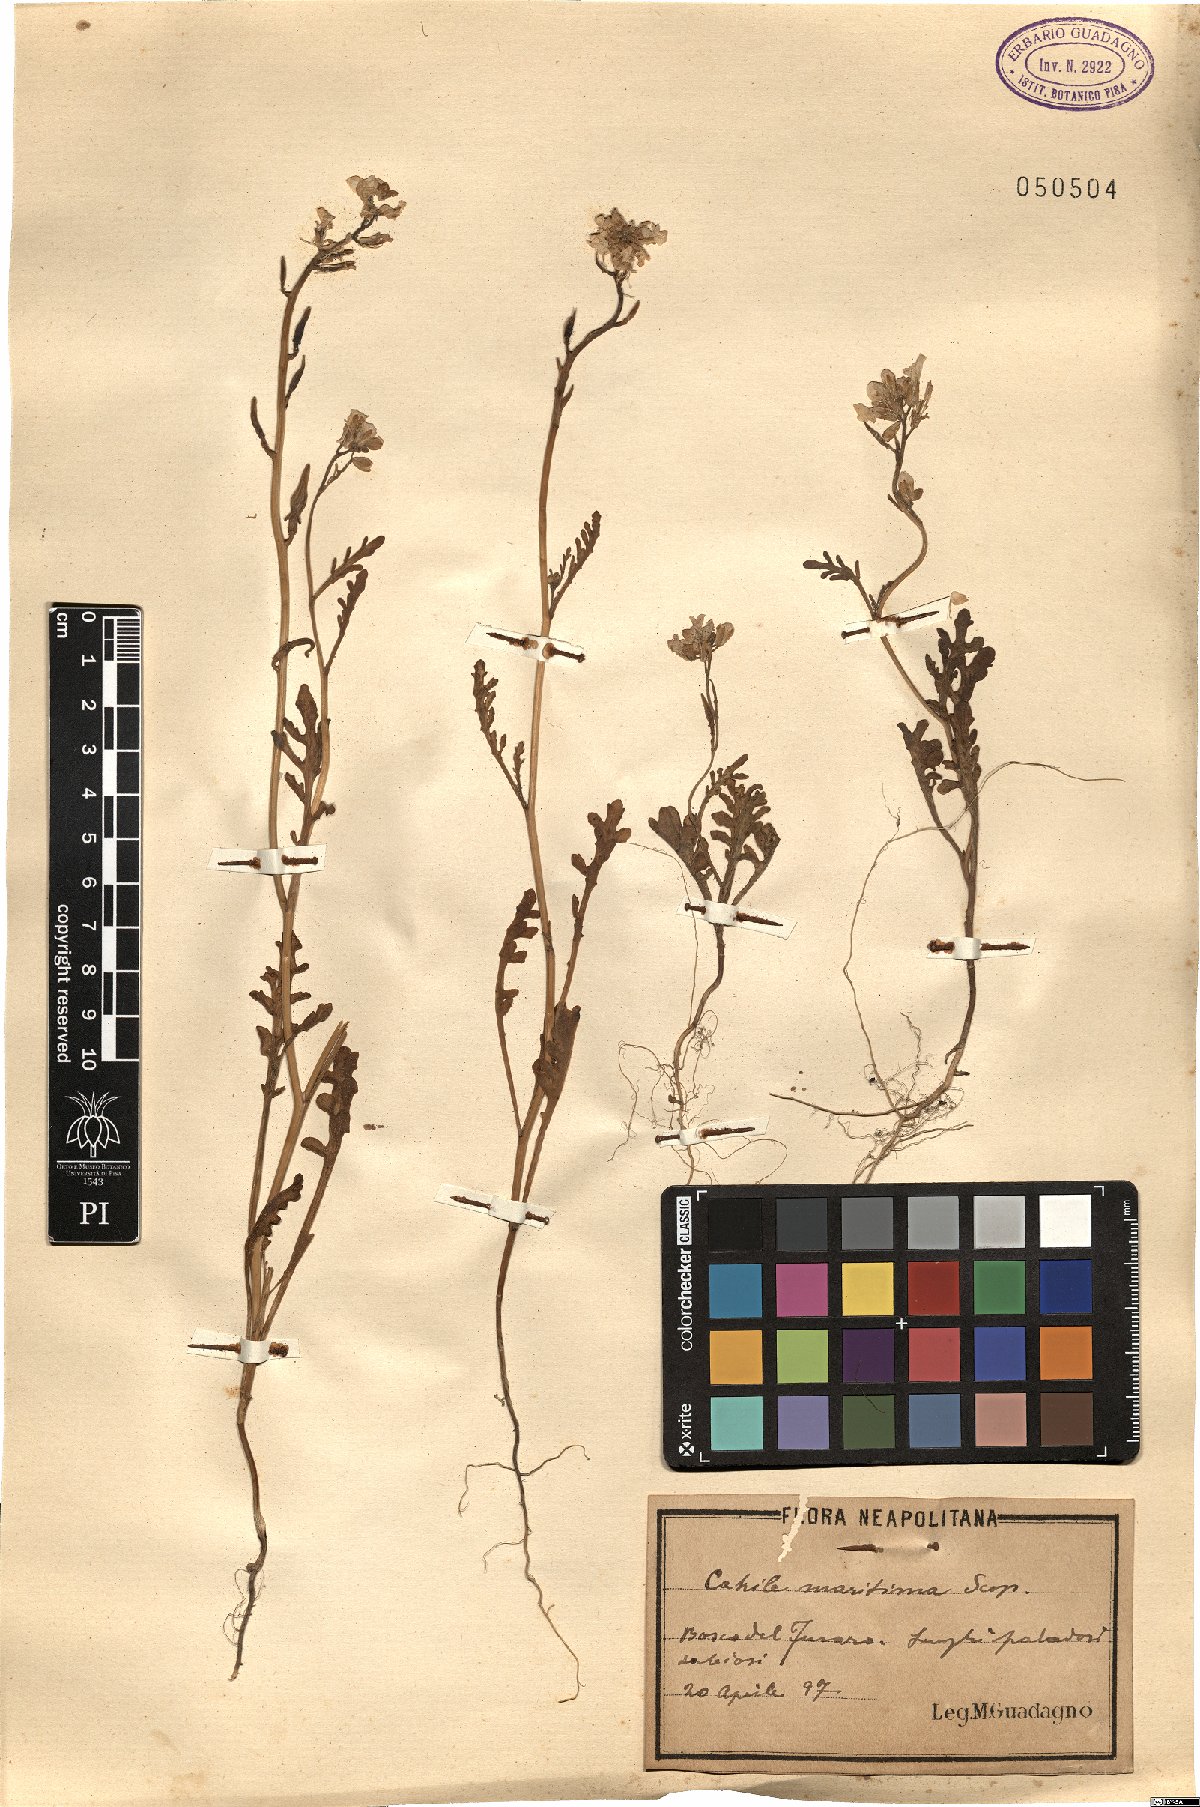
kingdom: Plantae
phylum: Tracheophyta
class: Magnoliopsida
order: Brassicales
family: Brassicaceae
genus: Cakile
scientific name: Cakile maritima
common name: Sea rocket
